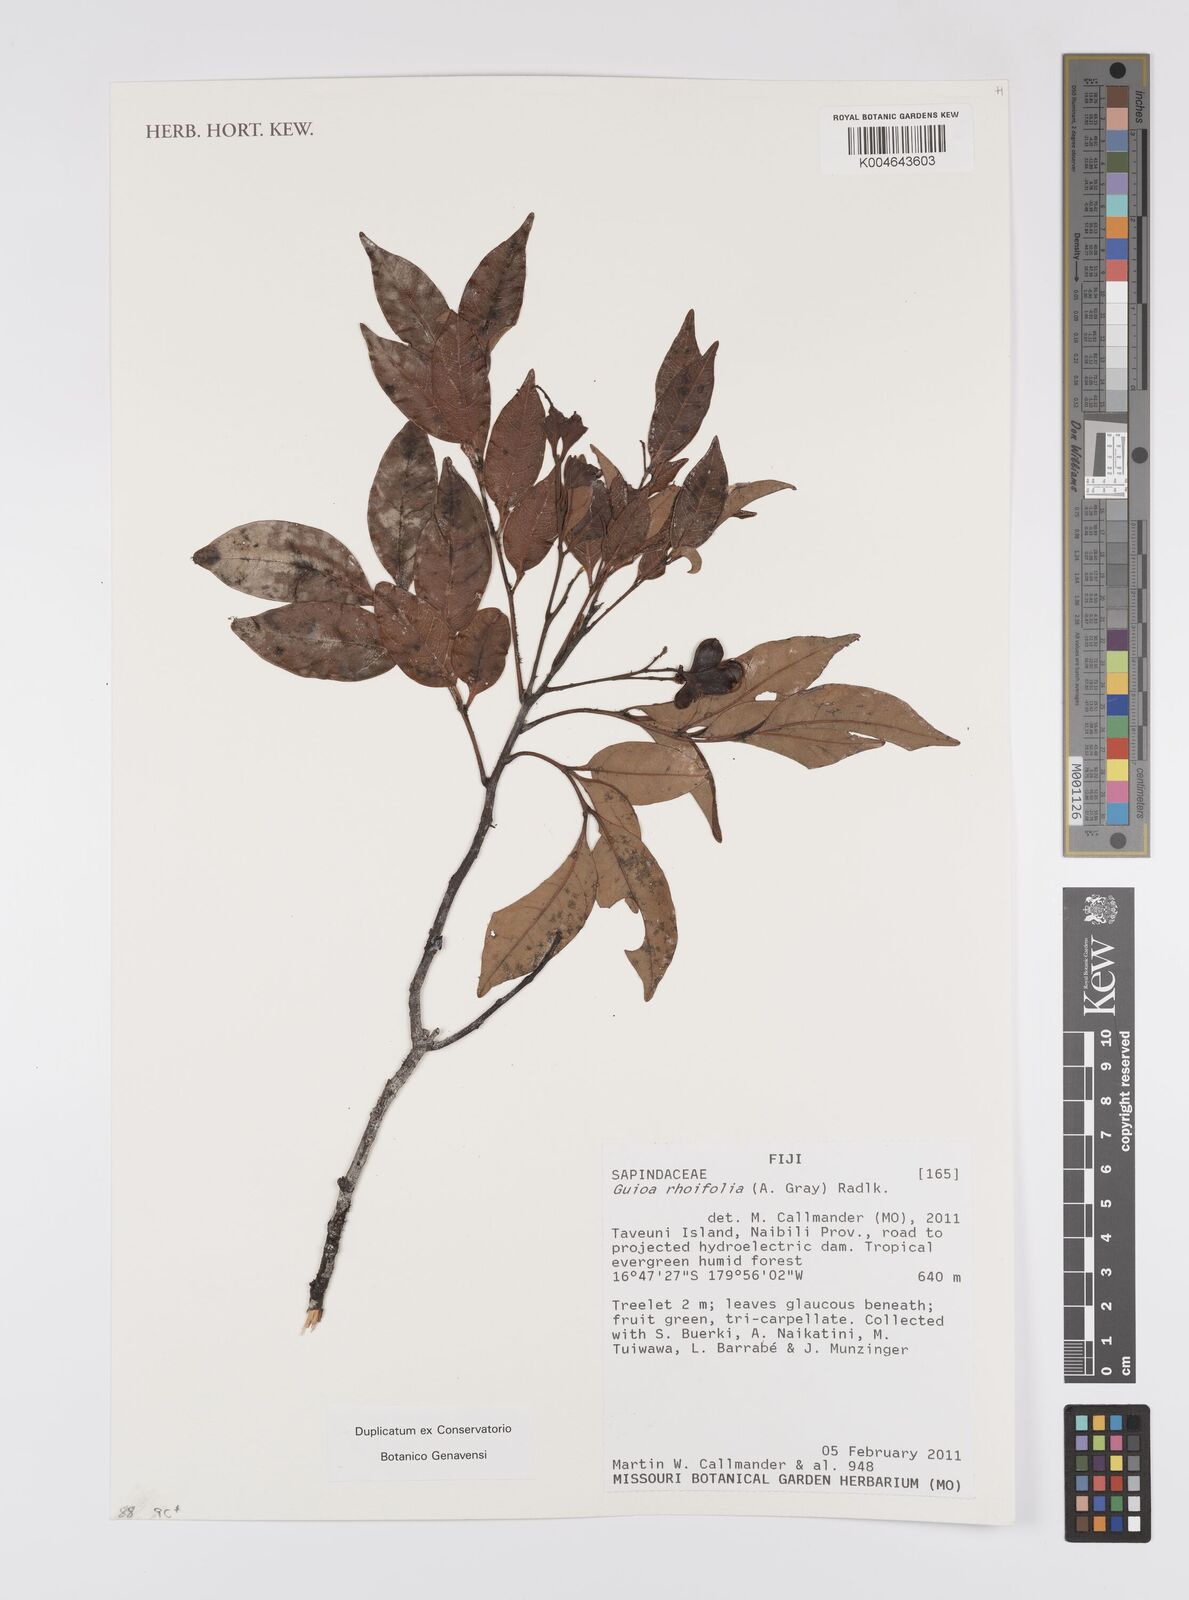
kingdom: Plantae
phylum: Tracheophyta
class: Magnoliopsida
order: Sapindales
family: Sapindaceae
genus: Guioa
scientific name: Guioa rhoifolia
